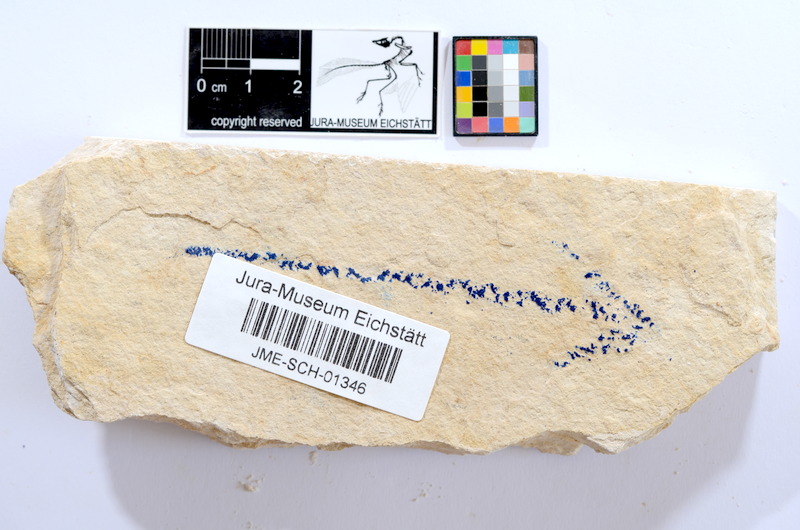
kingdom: Animalia
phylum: Chordata
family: Ascalaboidae
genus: Tharsis
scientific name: Tharsis dubius
